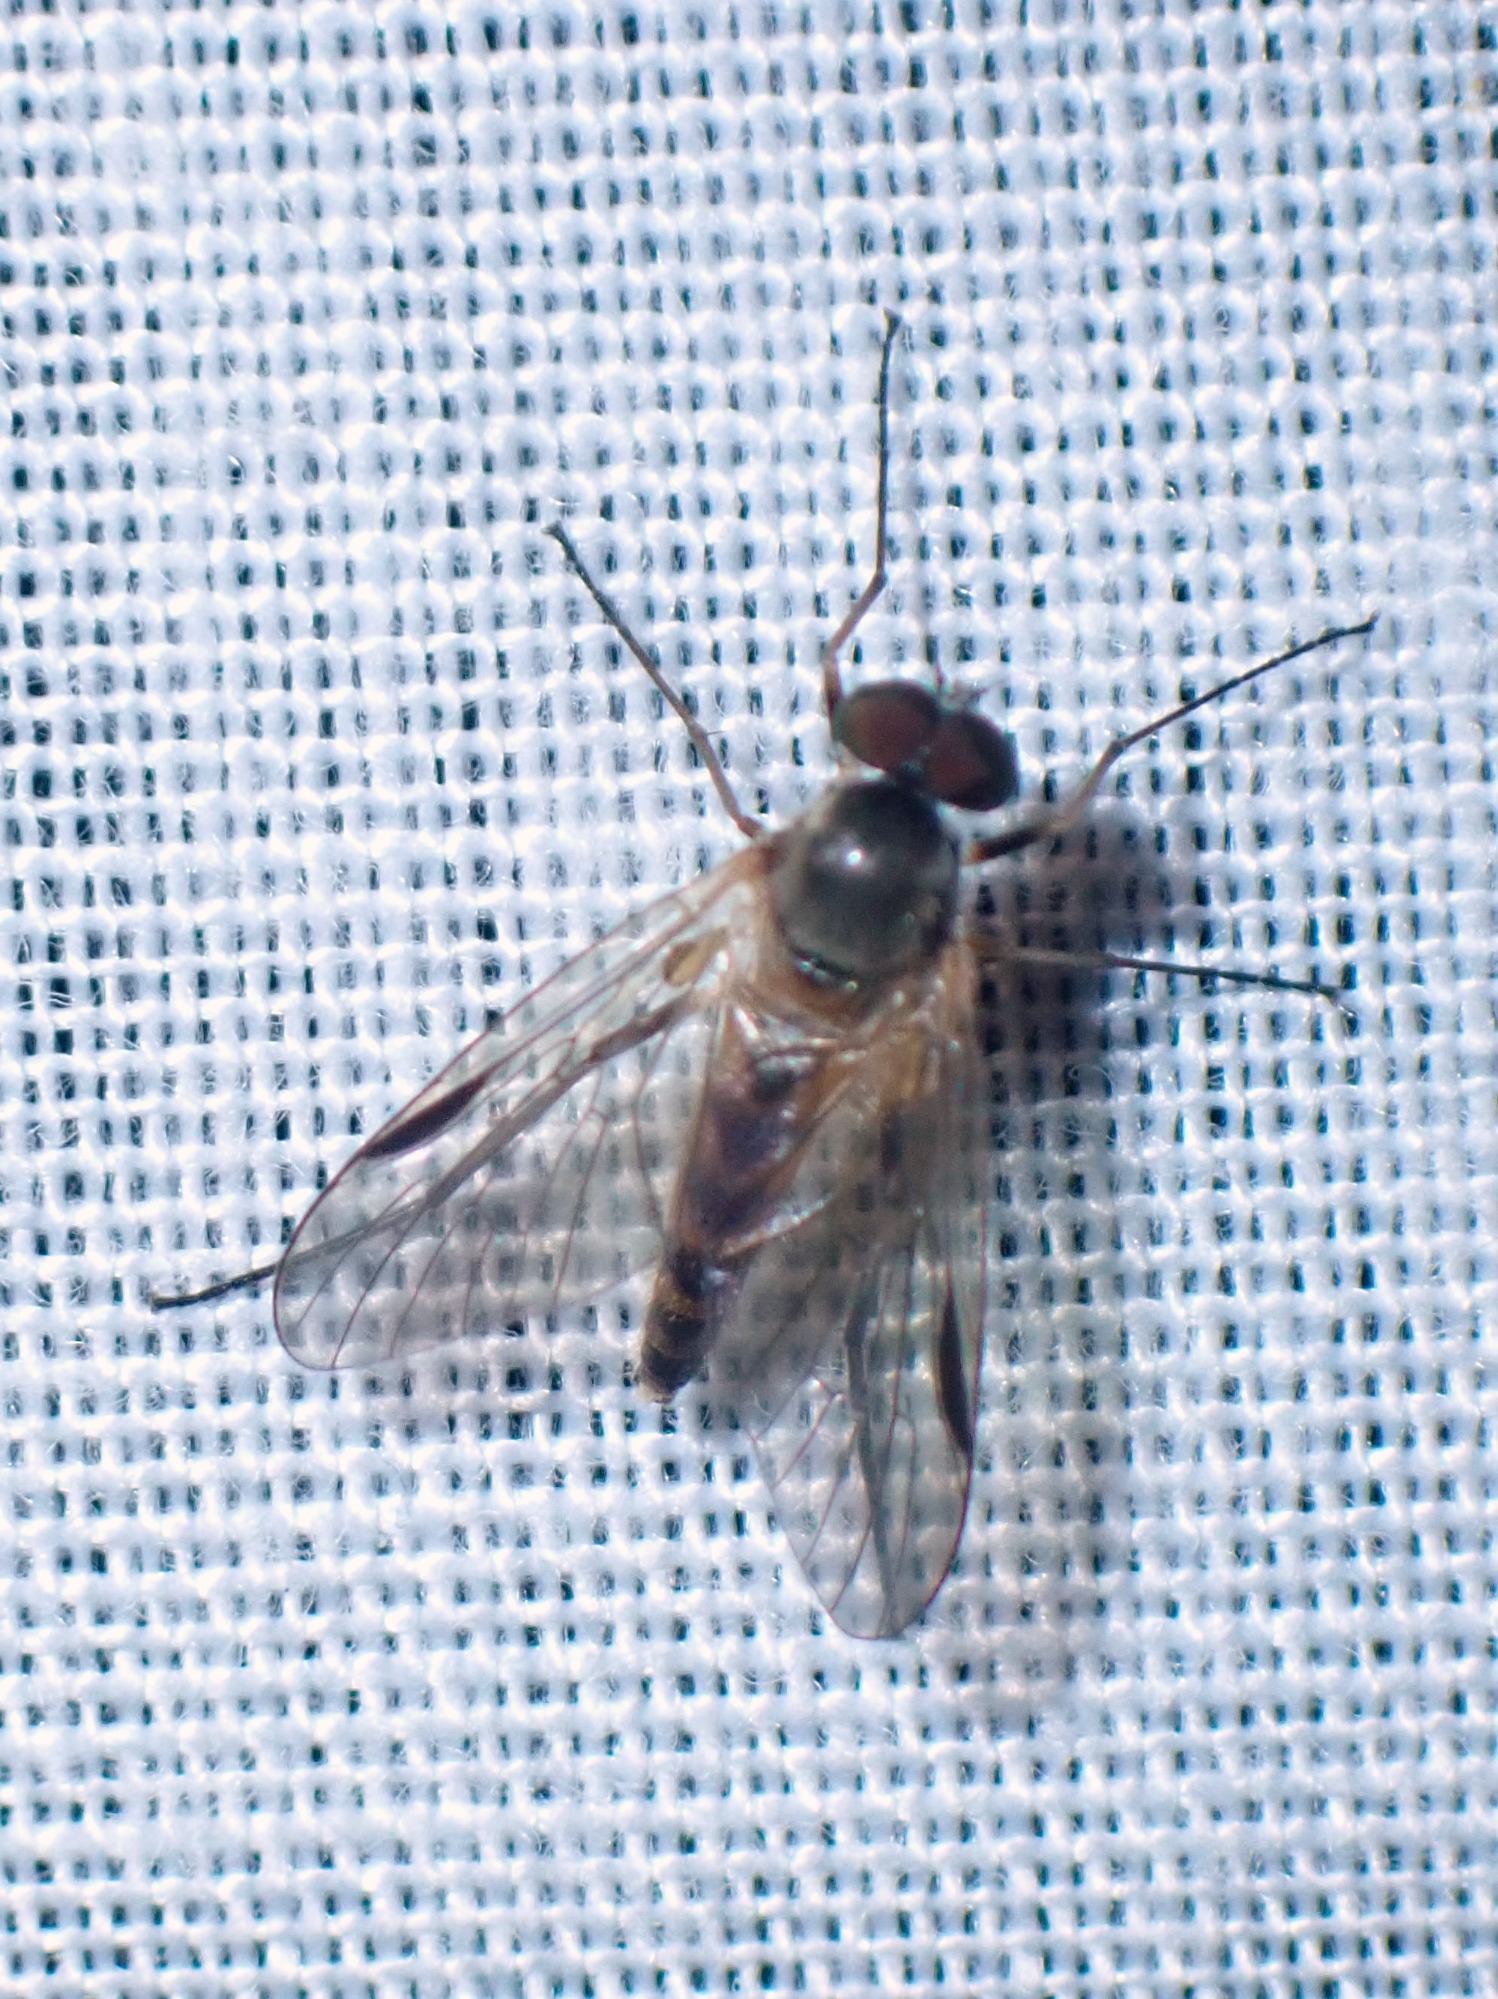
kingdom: Animalia
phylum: Arthropoda
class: Insecta
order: Diptera
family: Rhagionidae
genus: Rhagio
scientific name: Rhagio lineola
